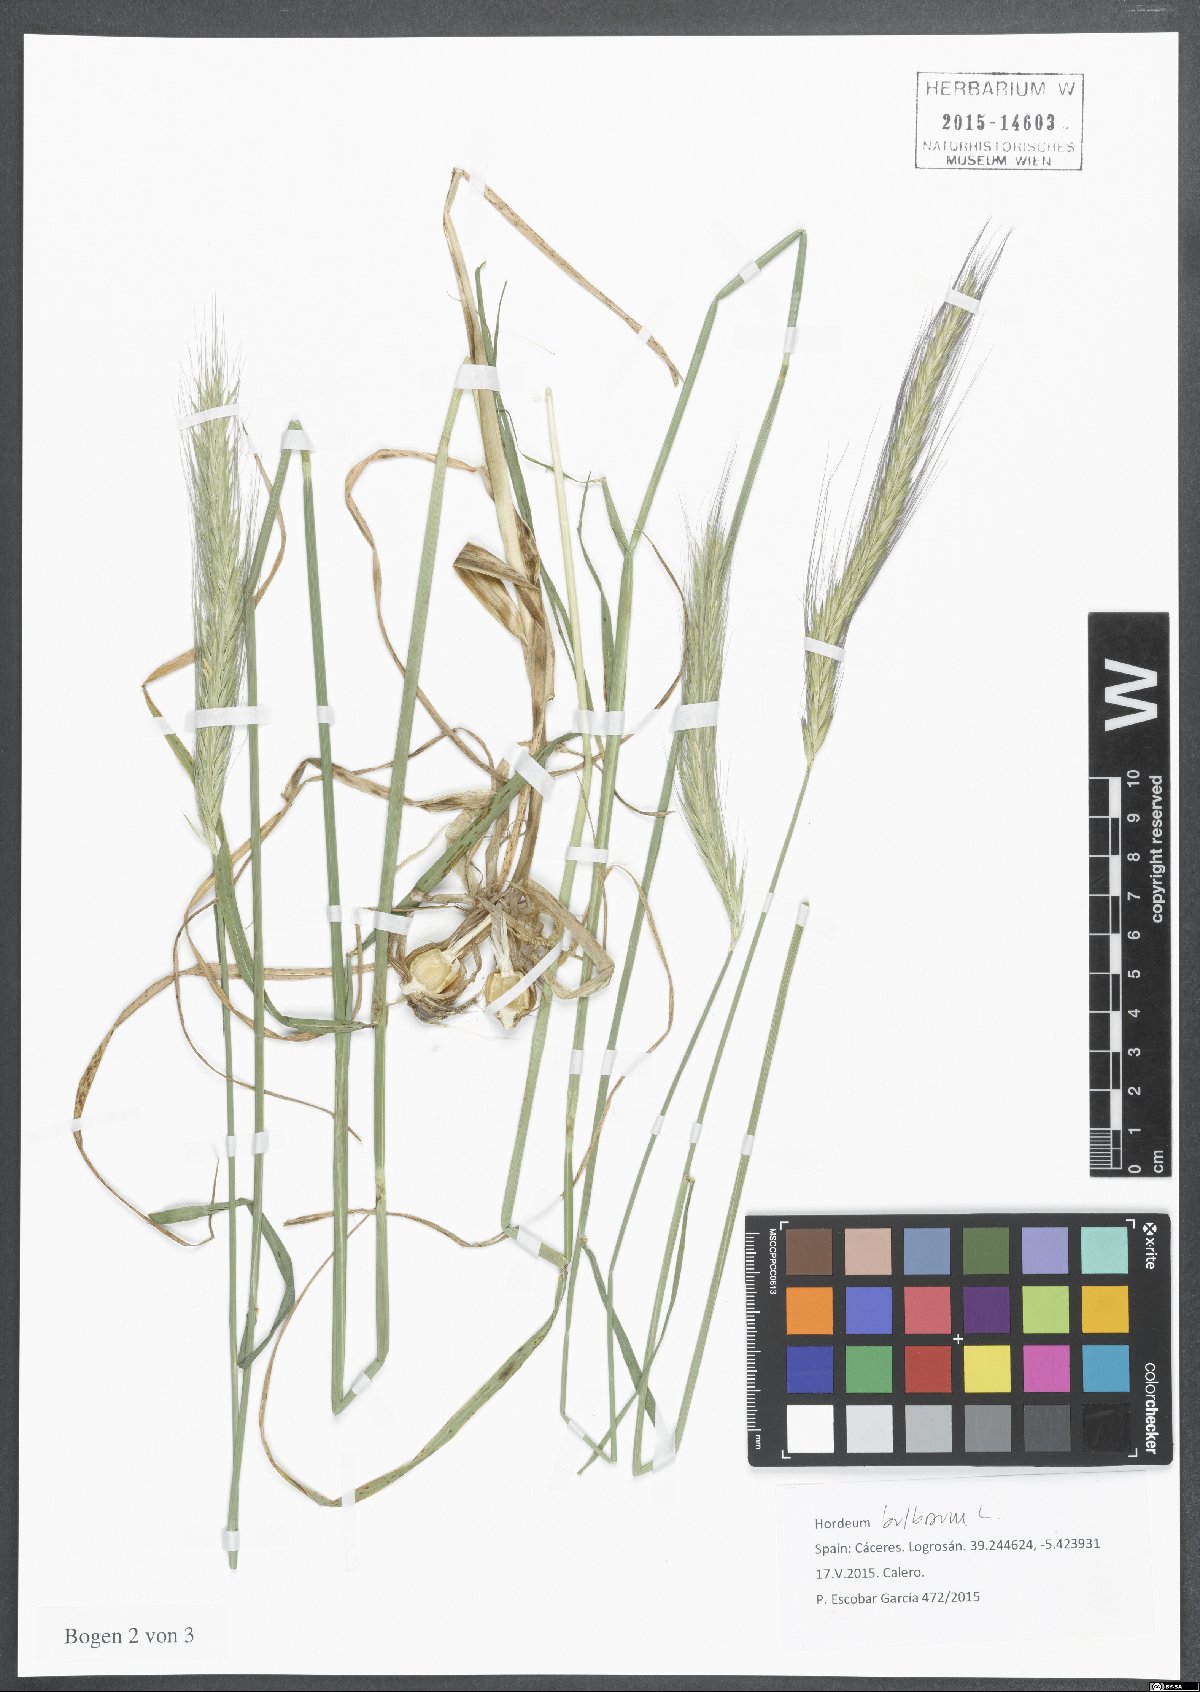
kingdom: Plantae
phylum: Tracheophyta
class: Liliopsida
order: Poales
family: Poaceae
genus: Hordeum
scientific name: Hordeum bulbosum
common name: Bulbous barley
